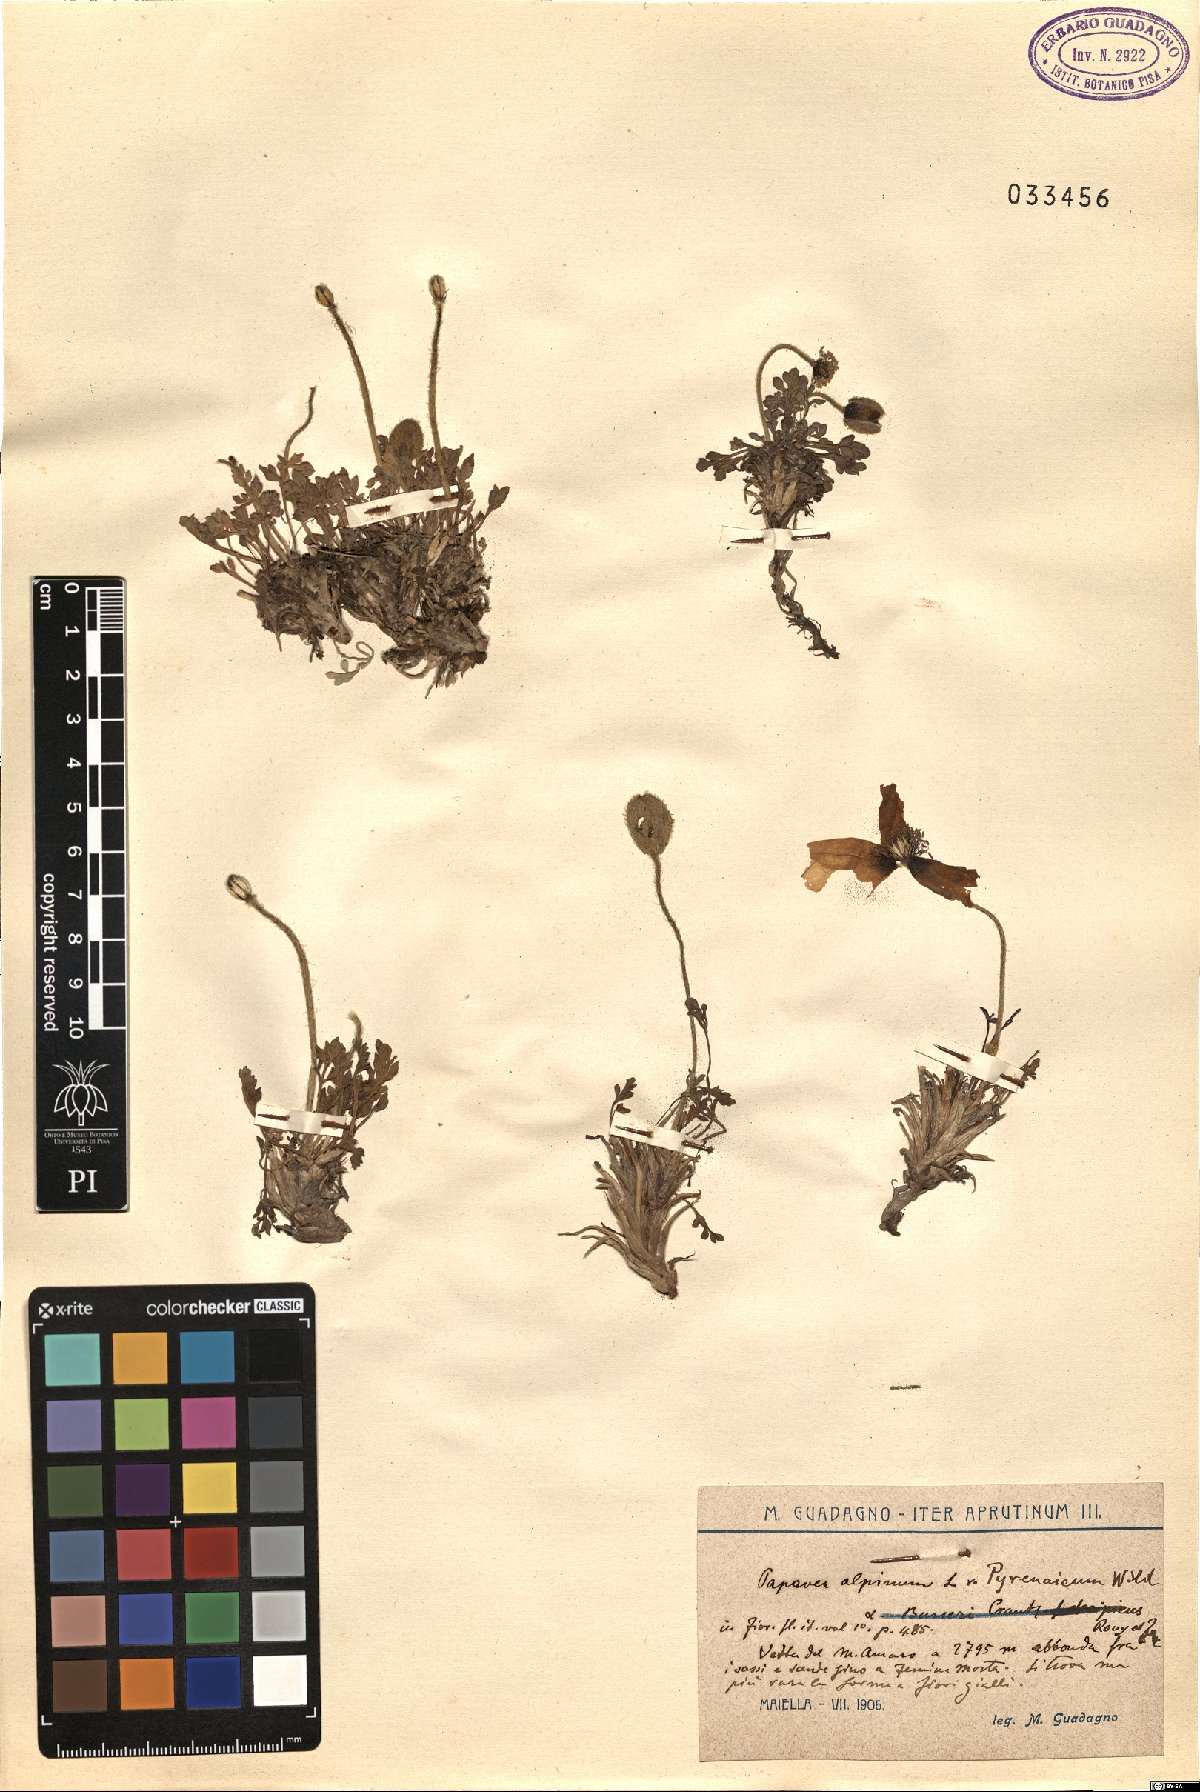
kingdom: Plantae
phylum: Tracheophyta
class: Magnoliopsida
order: Ranunculales
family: Papaveraceae
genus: Papaver
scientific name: Papaver alpinum
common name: Austrian poppy
